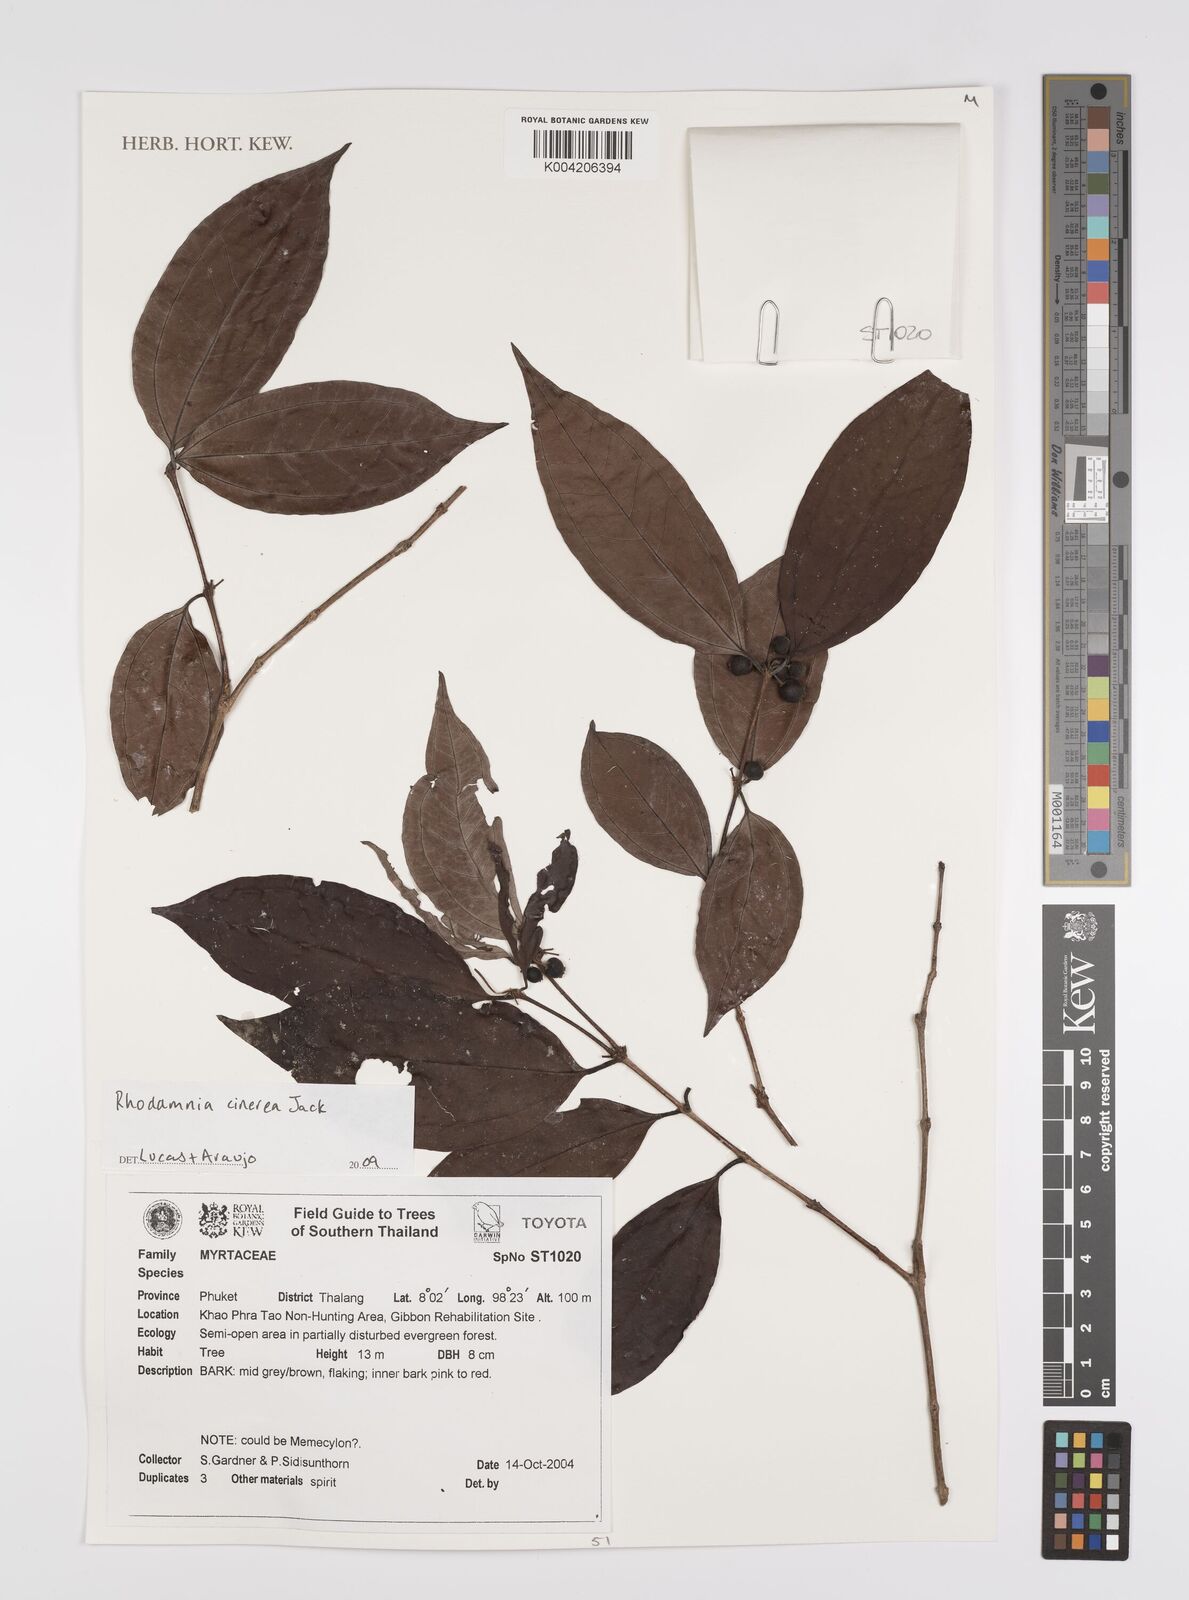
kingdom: Plantae
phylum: Tracheophyta
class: Magnoliopsida
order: Myrtales
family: Myrtaceae
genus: Rhodamnia
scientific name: Rhodamnia cinerea
